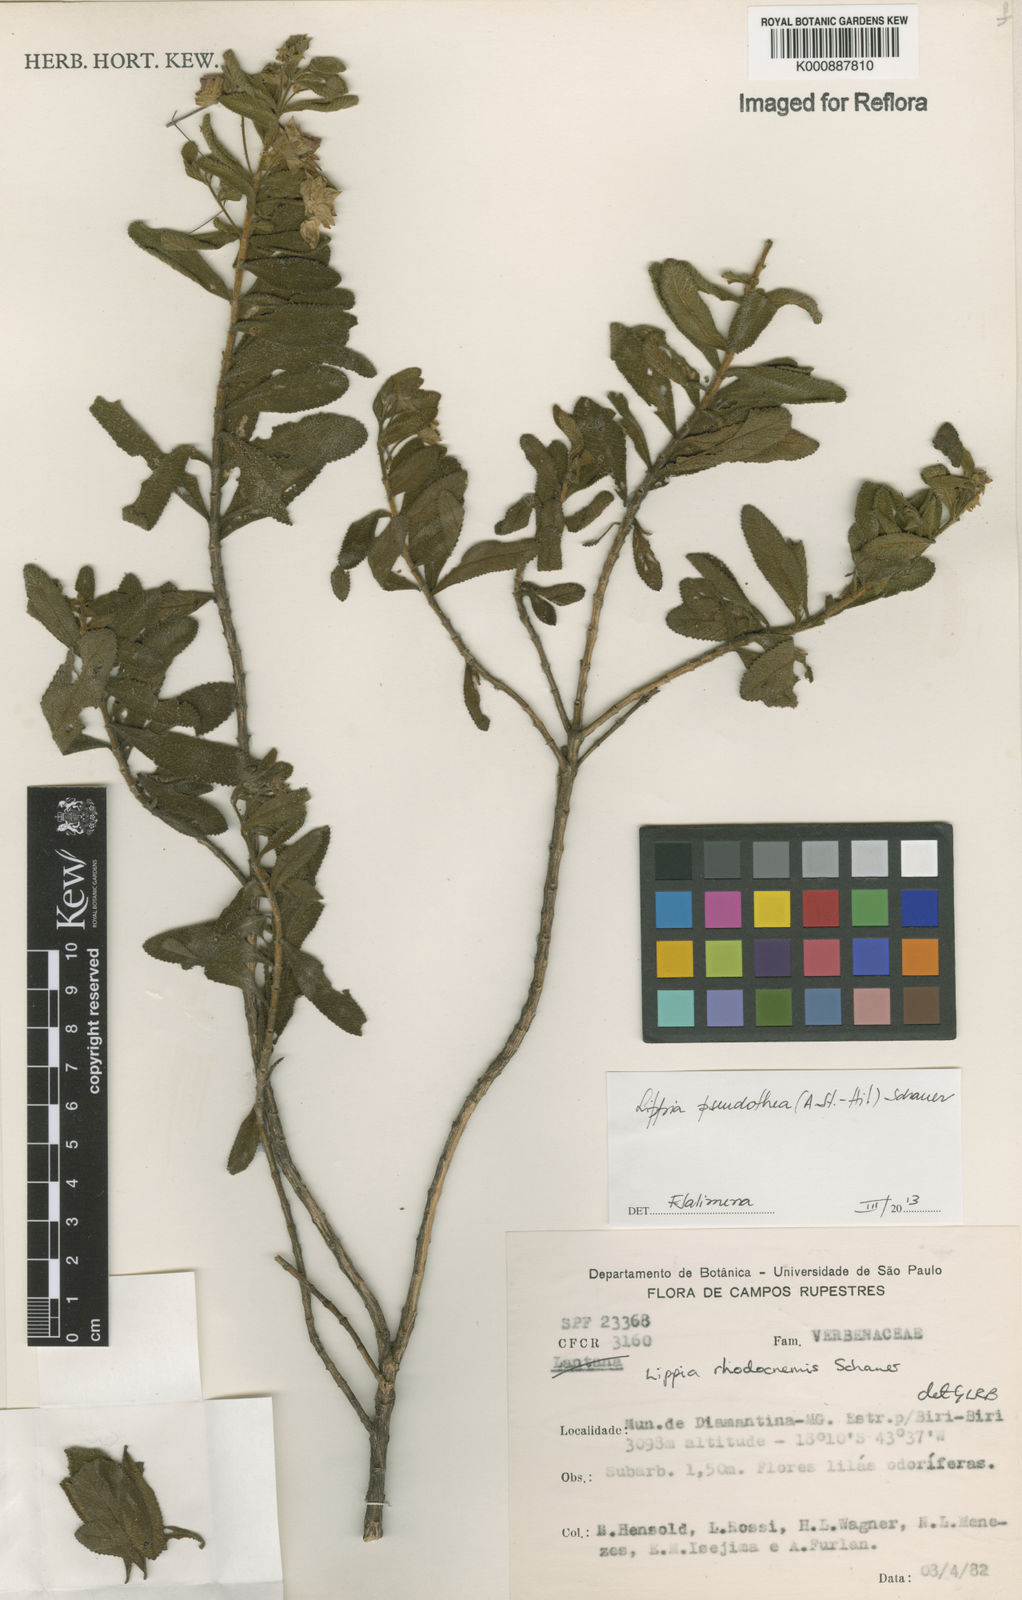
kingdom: Plantae
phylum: Tracheophyta
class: Magnoliopsida
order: Lamiales
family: Verbenaceae
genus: Lippia
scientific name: Lippia
